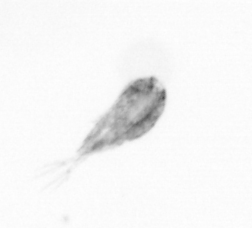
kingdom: Animalia
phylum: Arthropoda
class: Copepoda
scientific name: Copepoda
